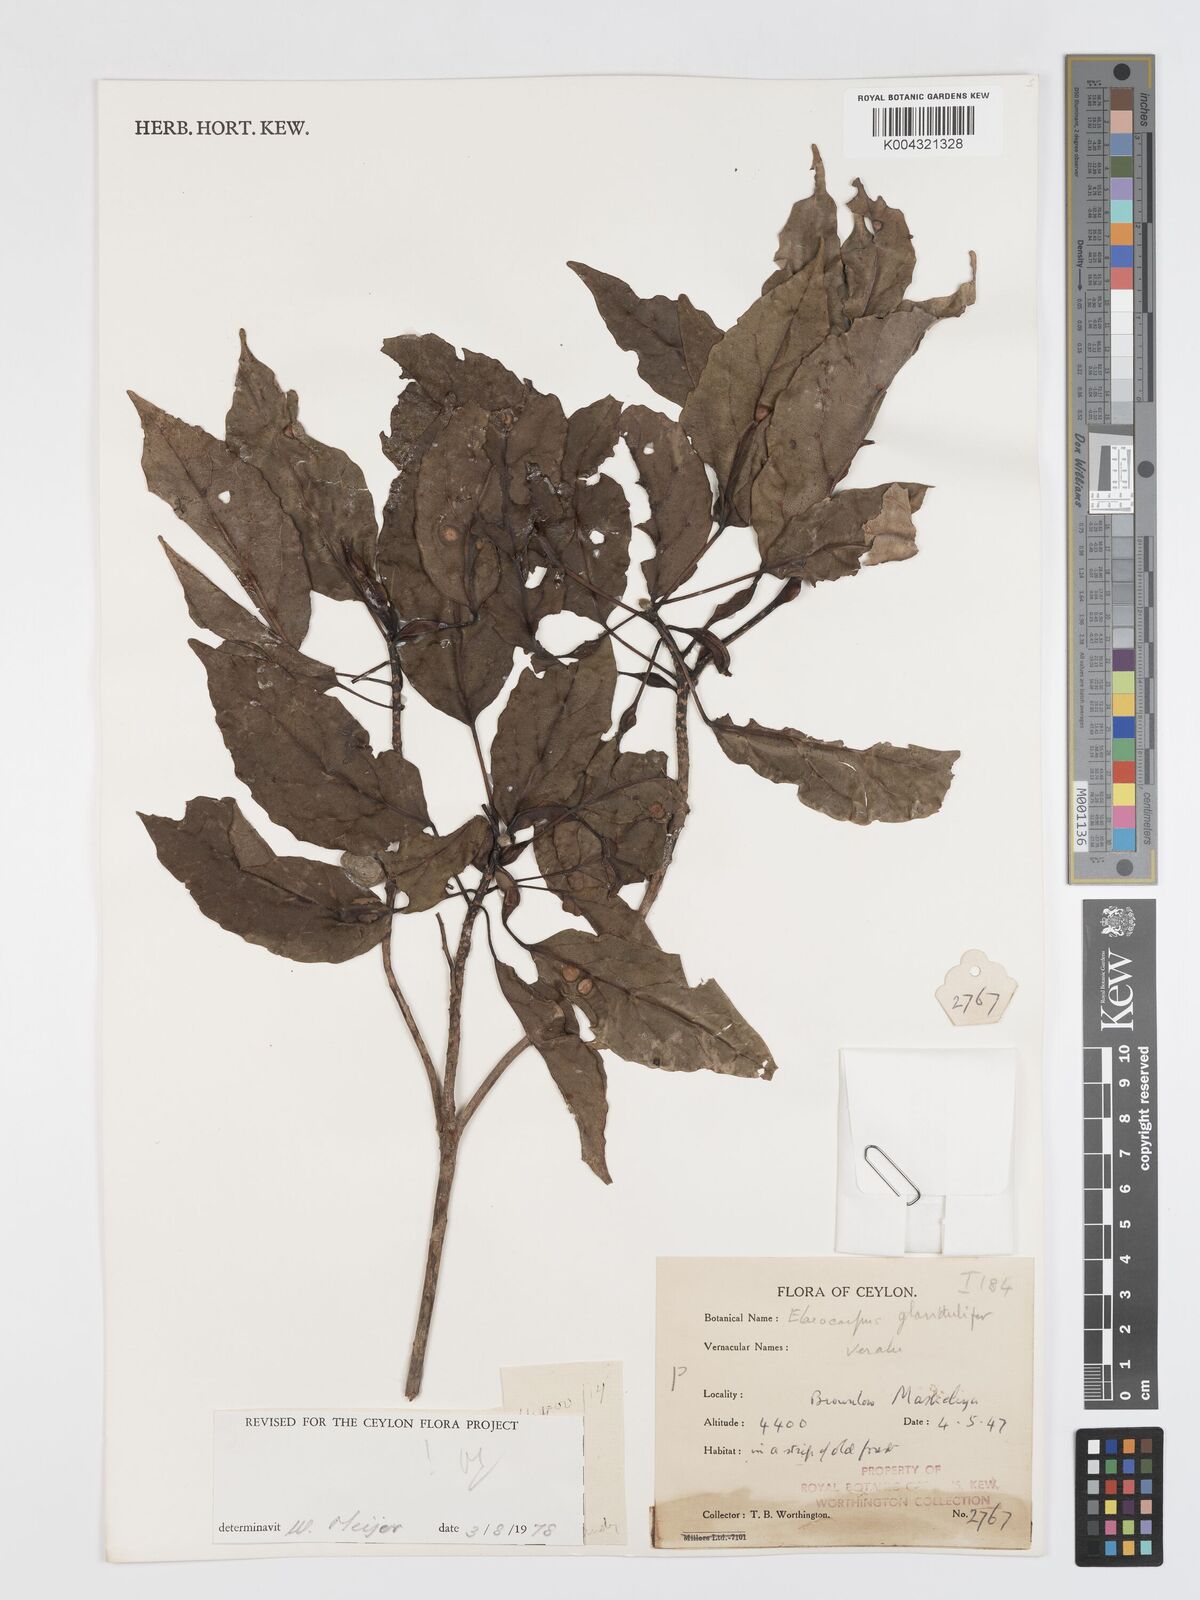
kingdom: Plantae
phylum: Tracheophyta
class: Magnoliopsida
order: Oxalidales
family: Elaeocarpaceae
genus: Elaeocarpus
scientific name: Elaeocarpus glandulifer
